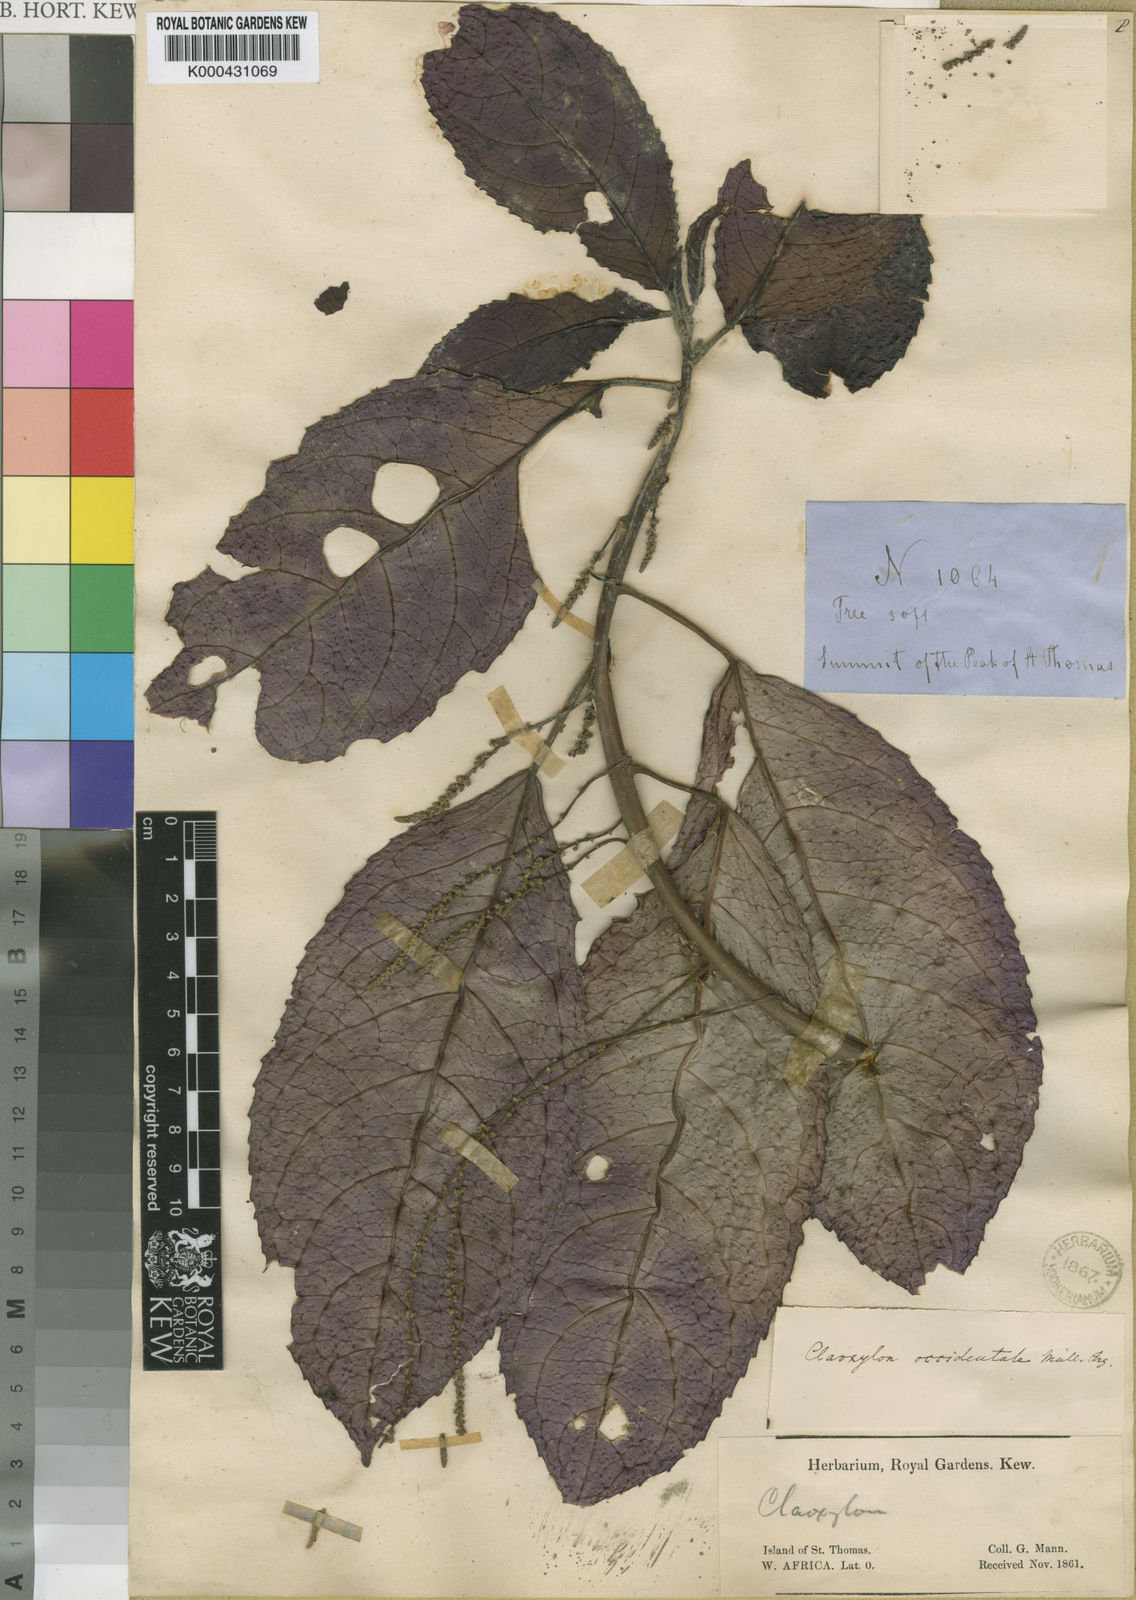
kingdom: Plantae
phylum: Tracheophyta
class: Magnoliopsida
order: Malpighiales
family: Euphorbiaceae
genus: Discoclaoxylon
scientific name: Discoclaoxylon
